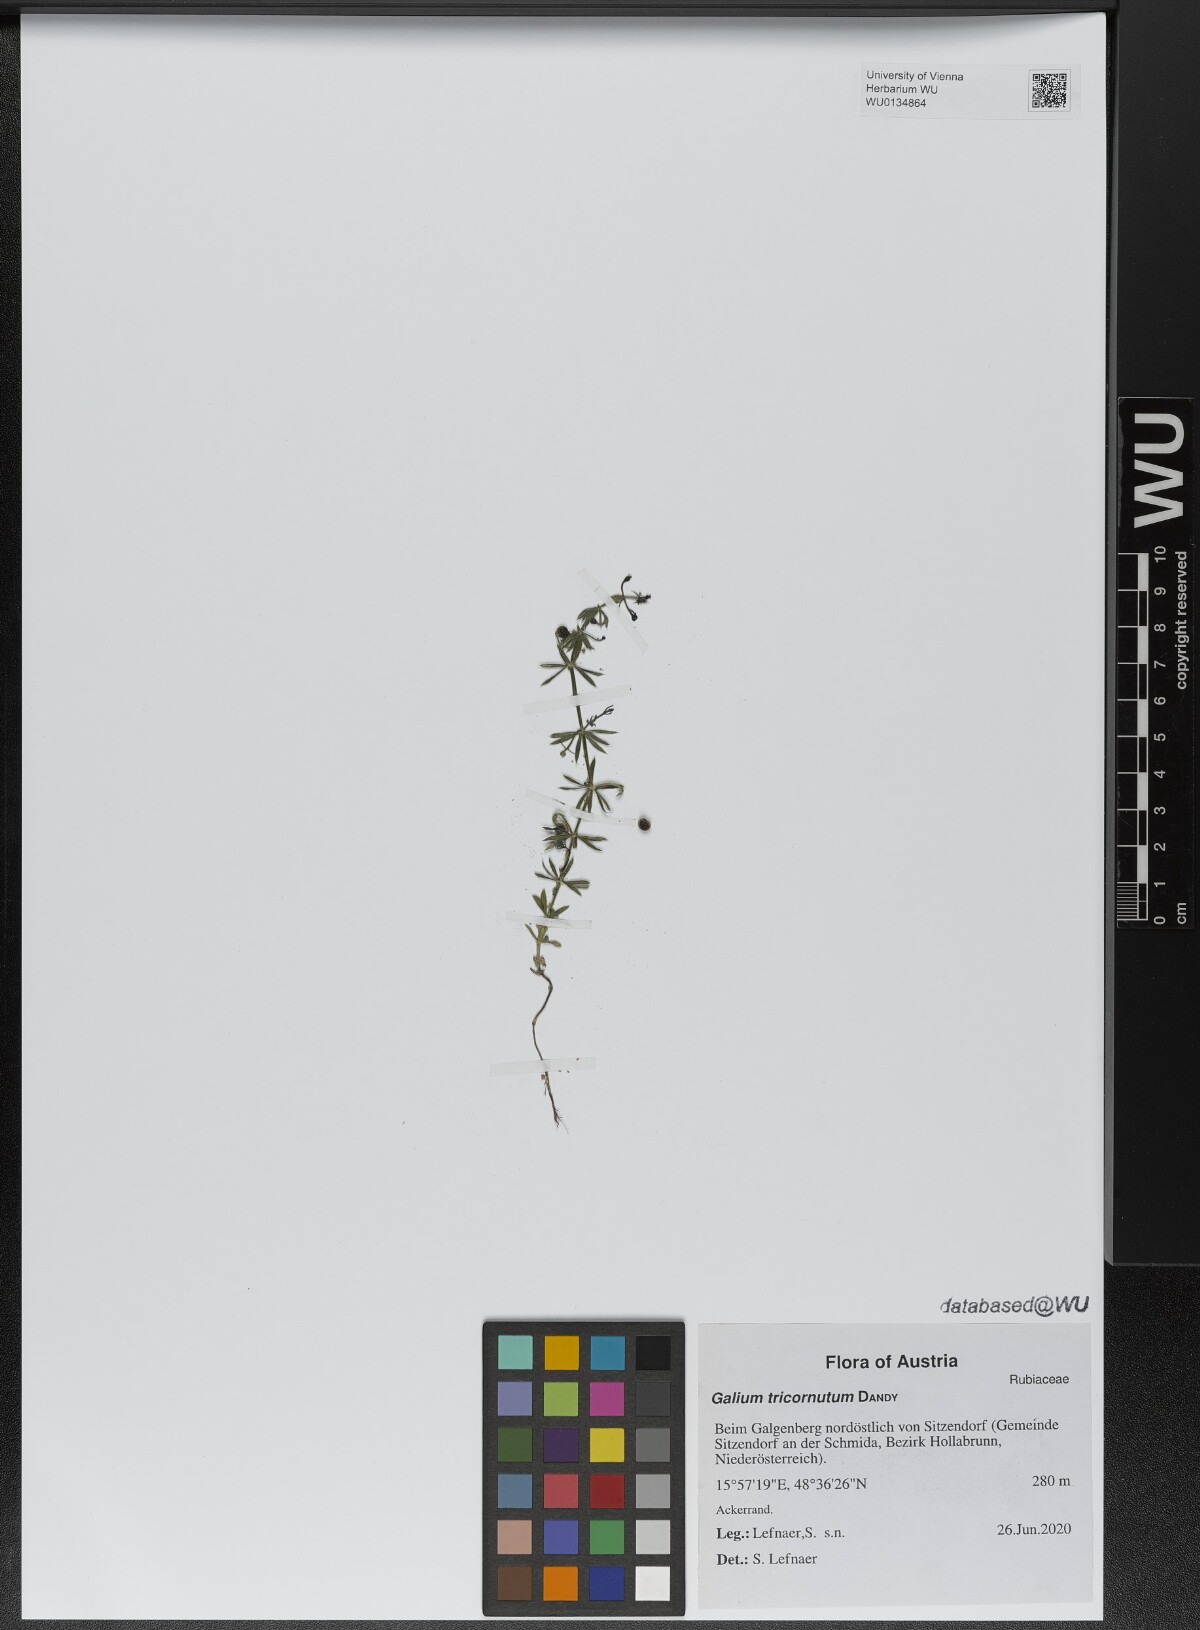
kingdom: Plantae
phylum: Tracheophyta
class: Magnoliopsida
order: Gentianales
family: Rubiaceae
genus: Galium
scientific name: Galium tricornutum
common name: Corn cleavers
